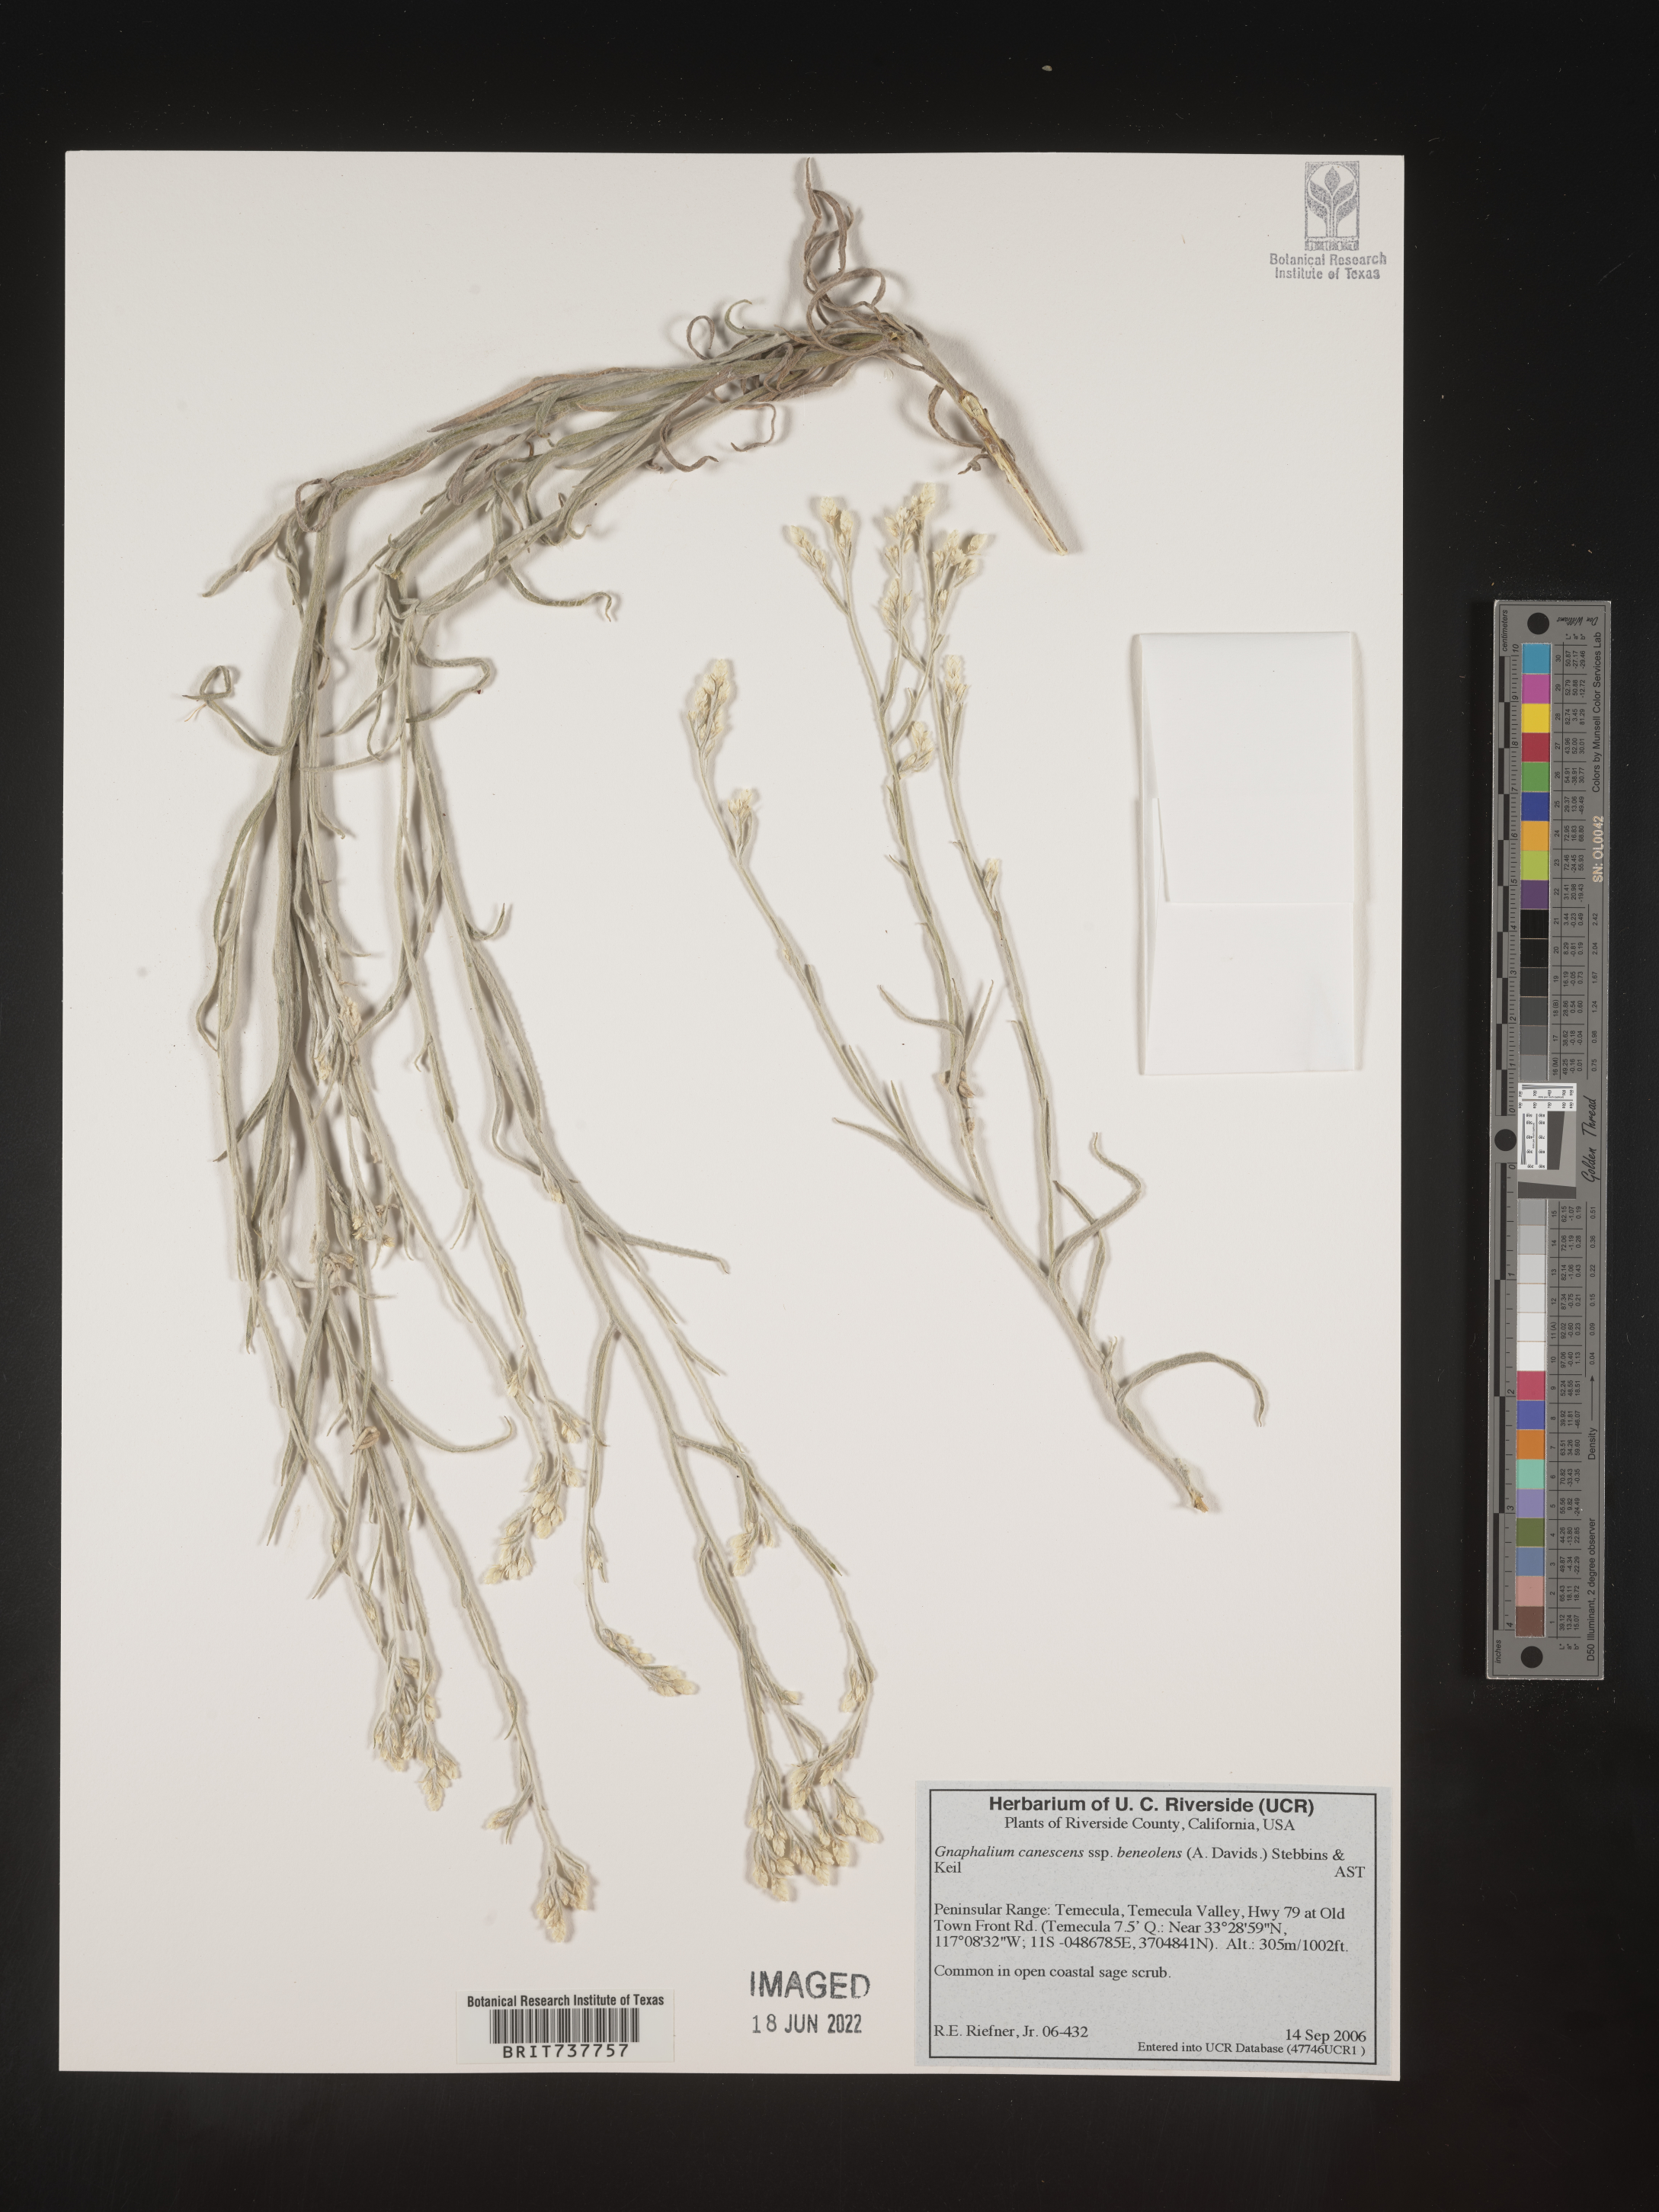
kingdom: Plantae
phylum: Tracheophyta
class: Magnoliopsida
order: Asterales
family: Asteraceae
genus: Pseudognaphalium
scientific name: Pseudognaphalium thermale
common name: Northwestern rabbit-tobacco
